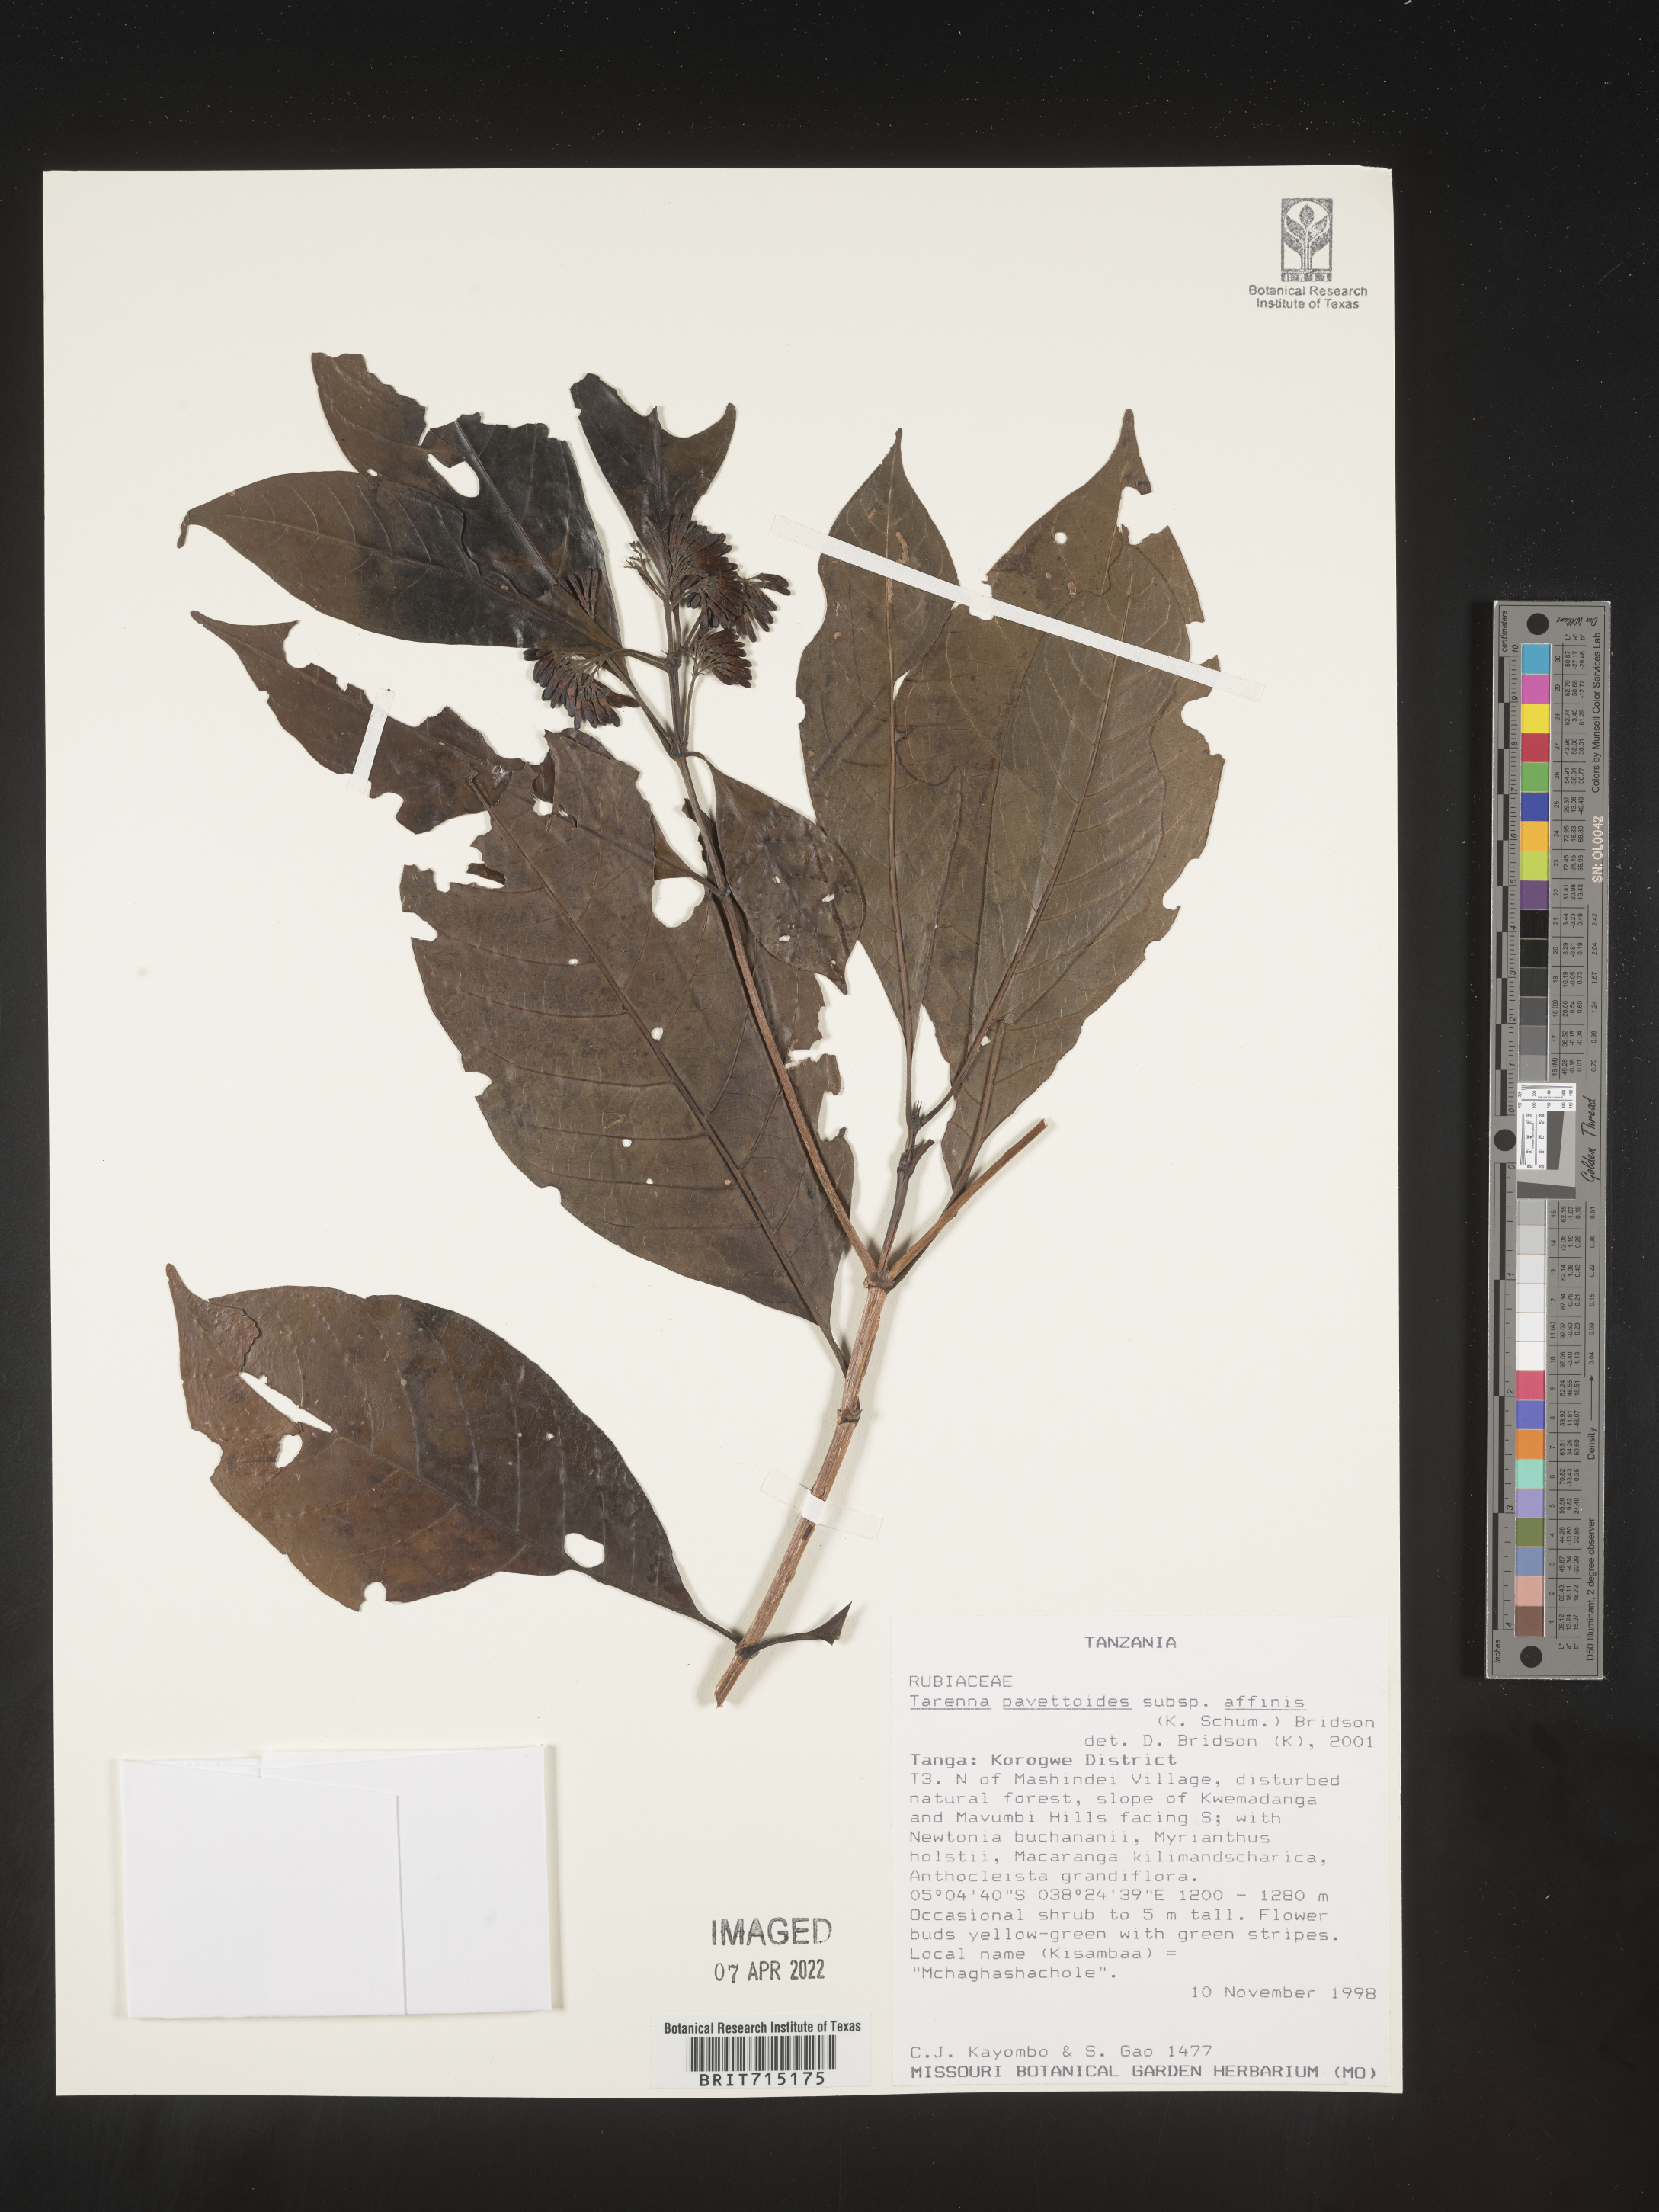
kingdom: Plantae
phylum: Tracheophyta
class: Magnoliopsida
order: Gentianales
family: Rubiaceae
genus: Tarenna
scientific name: Tarenna
